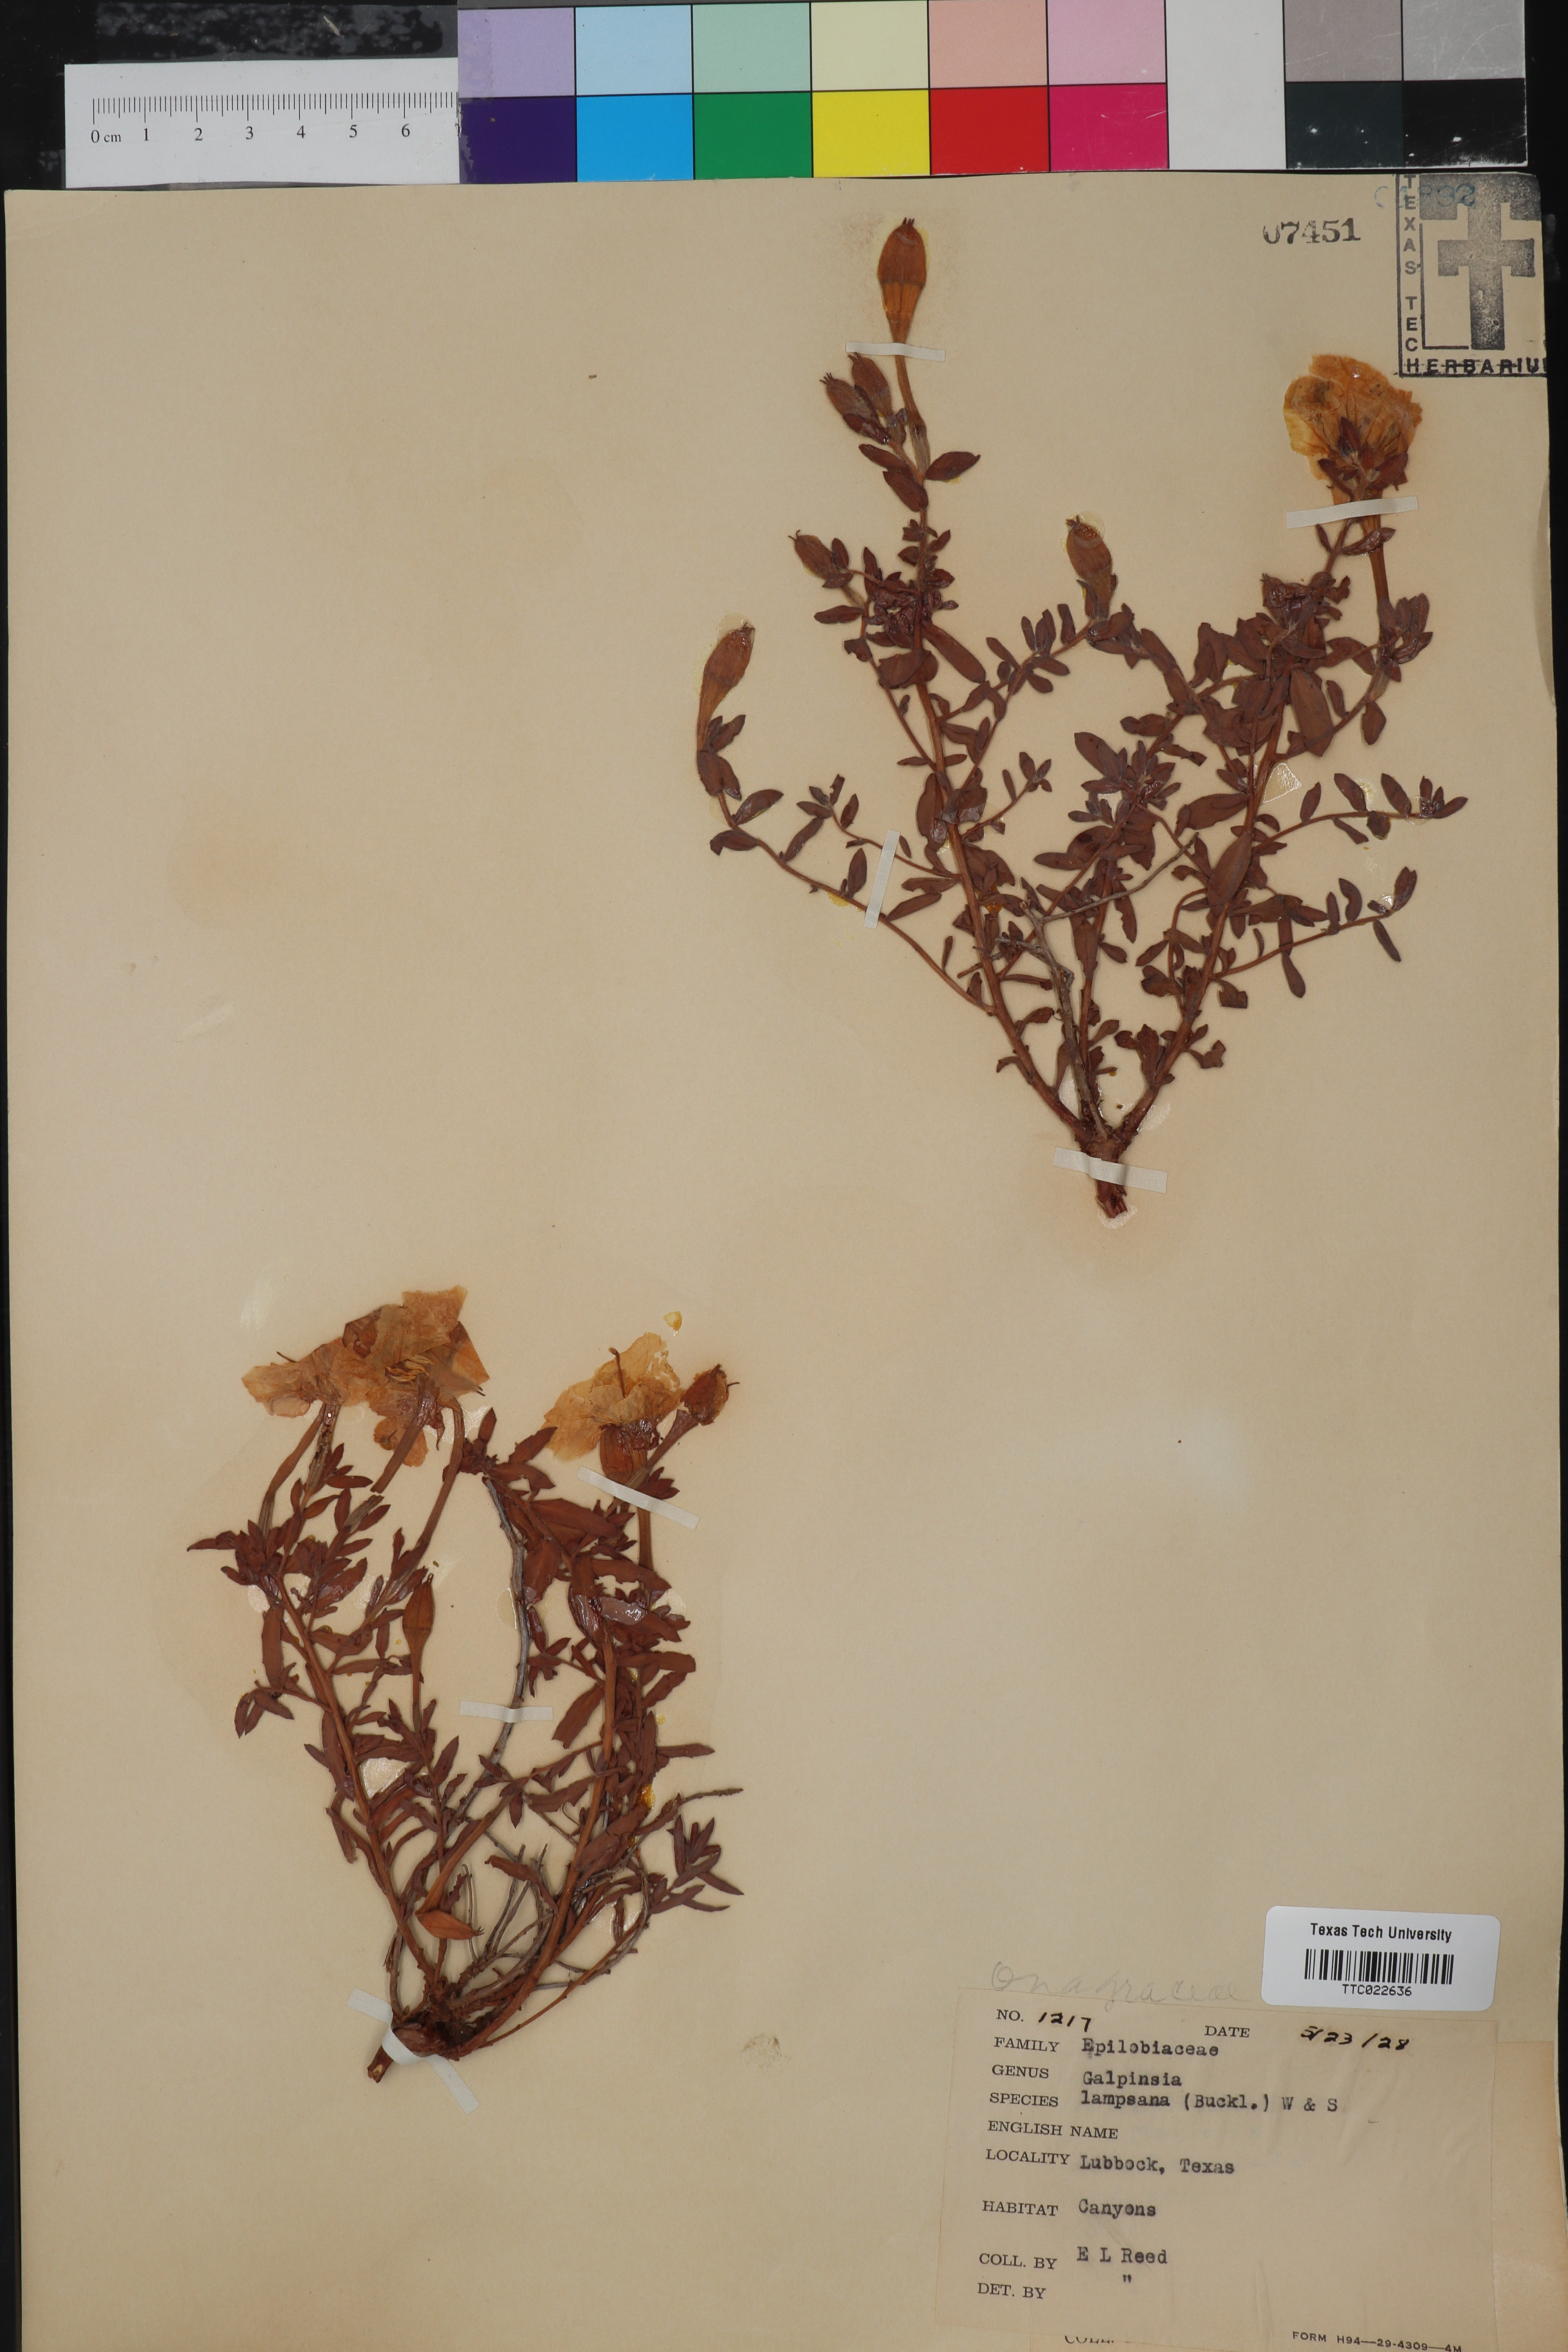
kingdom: Plantae
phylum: Tracheophyta
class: Magnoliopsida
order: Myrtales
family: Onagraceae
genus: Oenothera
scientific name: Oenothera Galpinsia lampsana
